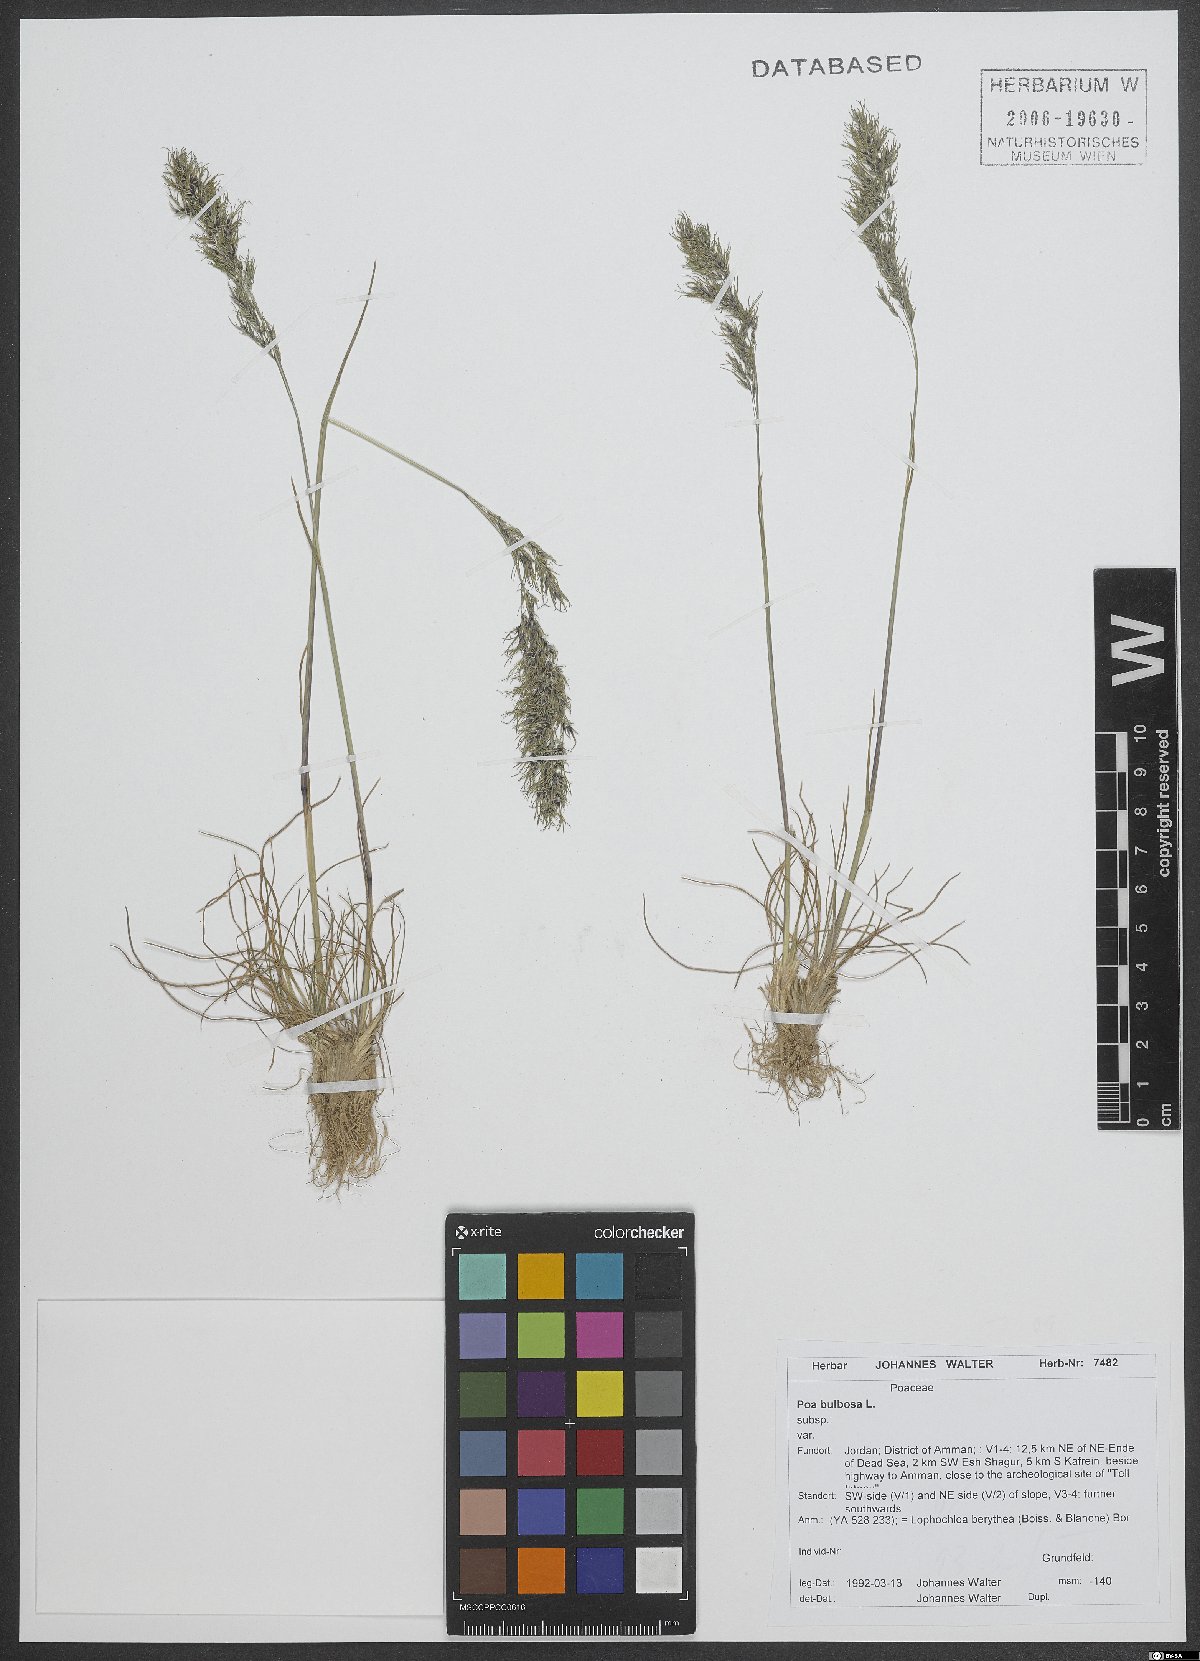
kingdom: Plantae
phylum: Tracheophyta
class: Liliopsida
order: Poales
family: Poaceae
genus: Poa
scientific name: Poa bulbosa
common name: Bulbous bluegrass
